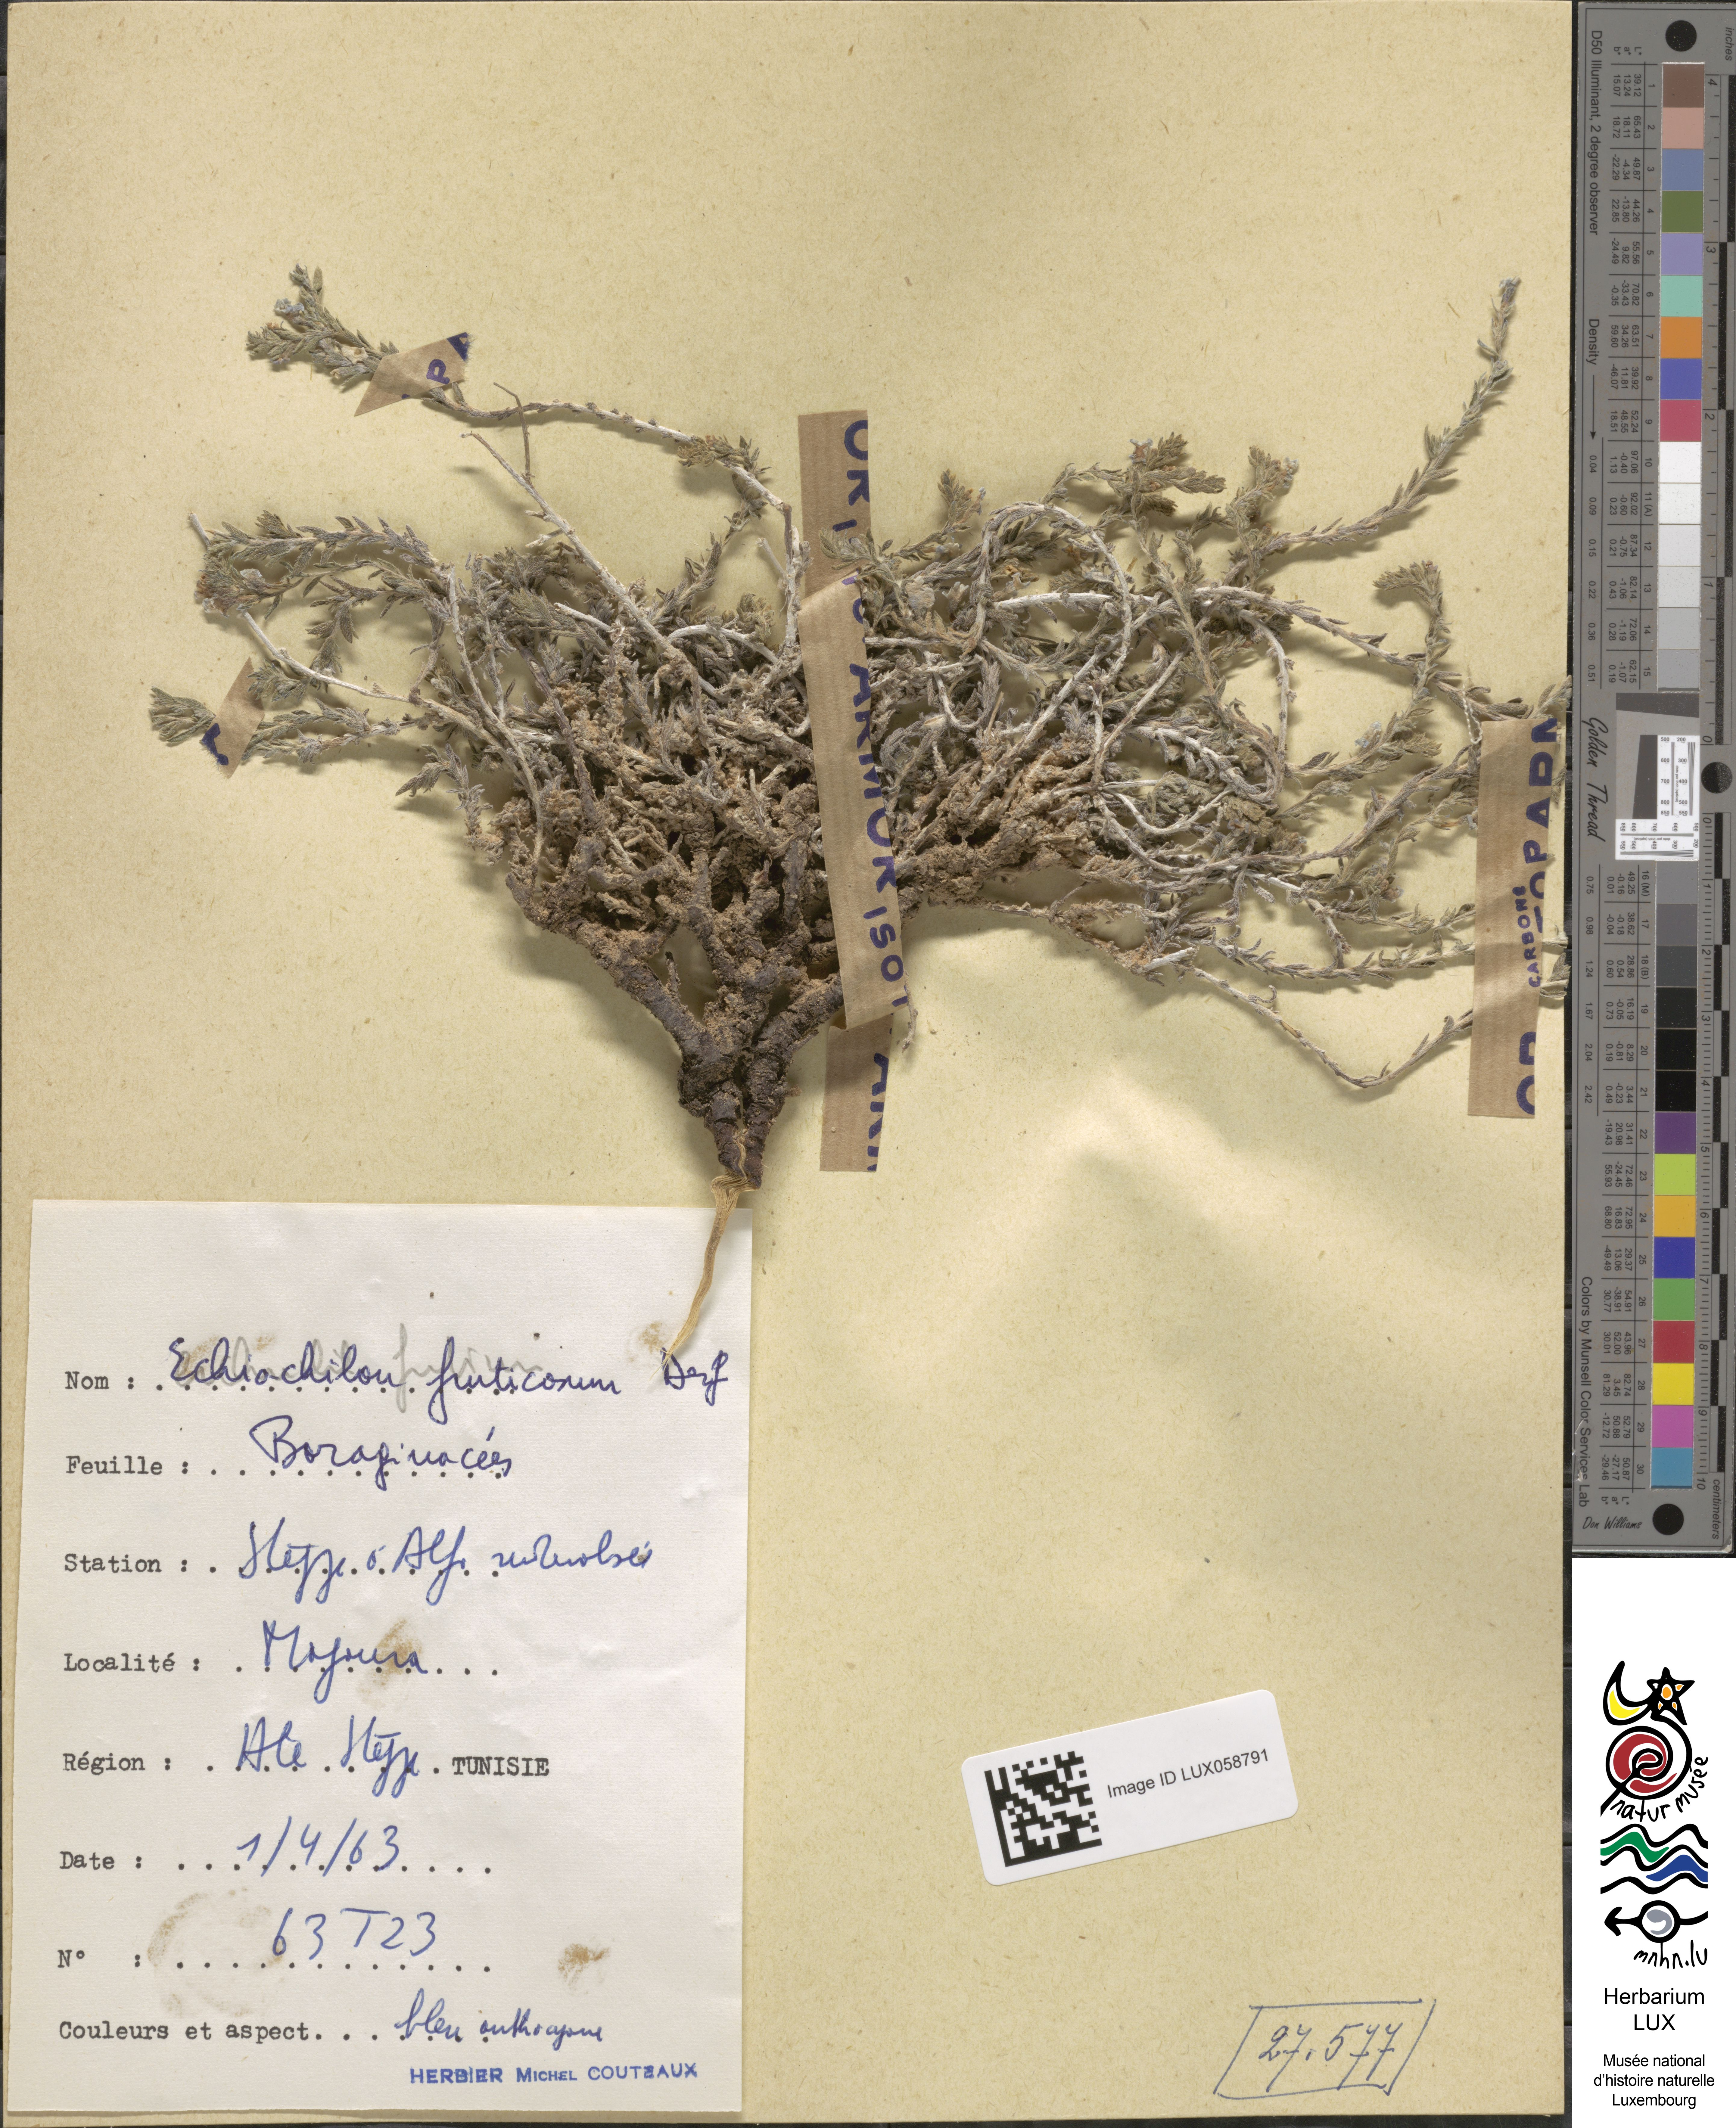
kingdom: Plantae
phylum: Tracheophyta
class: Magnoliopsida
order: Boraginales
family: Boraginaceae
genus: Echiochilon
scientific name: Echiochilon fruticosum
